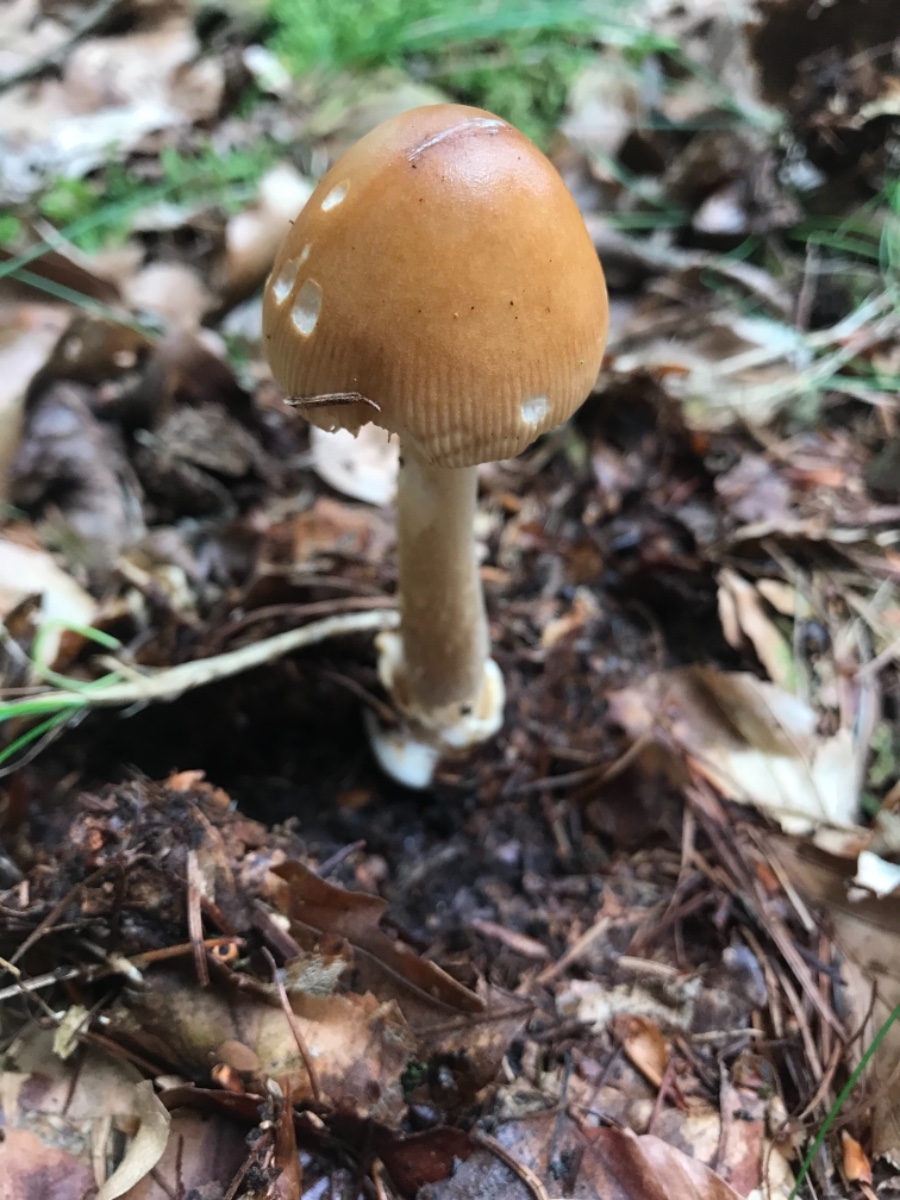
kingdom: Fungi
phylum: Basidiomycota
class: Agaricomycetes
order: Agaricales
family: Amanitaceae
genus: Amanita
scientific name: Amanita fulva
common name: brun kam-fluesvamp
